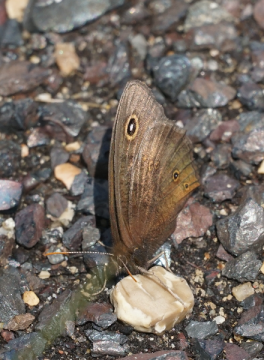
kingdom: Animalia
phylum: Arthropoda
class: Insecta
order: Lepidoptera
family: Nymphalidae
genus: Cercyonis
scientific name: Cercyonis pegala
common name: Common Wood-Nymph
